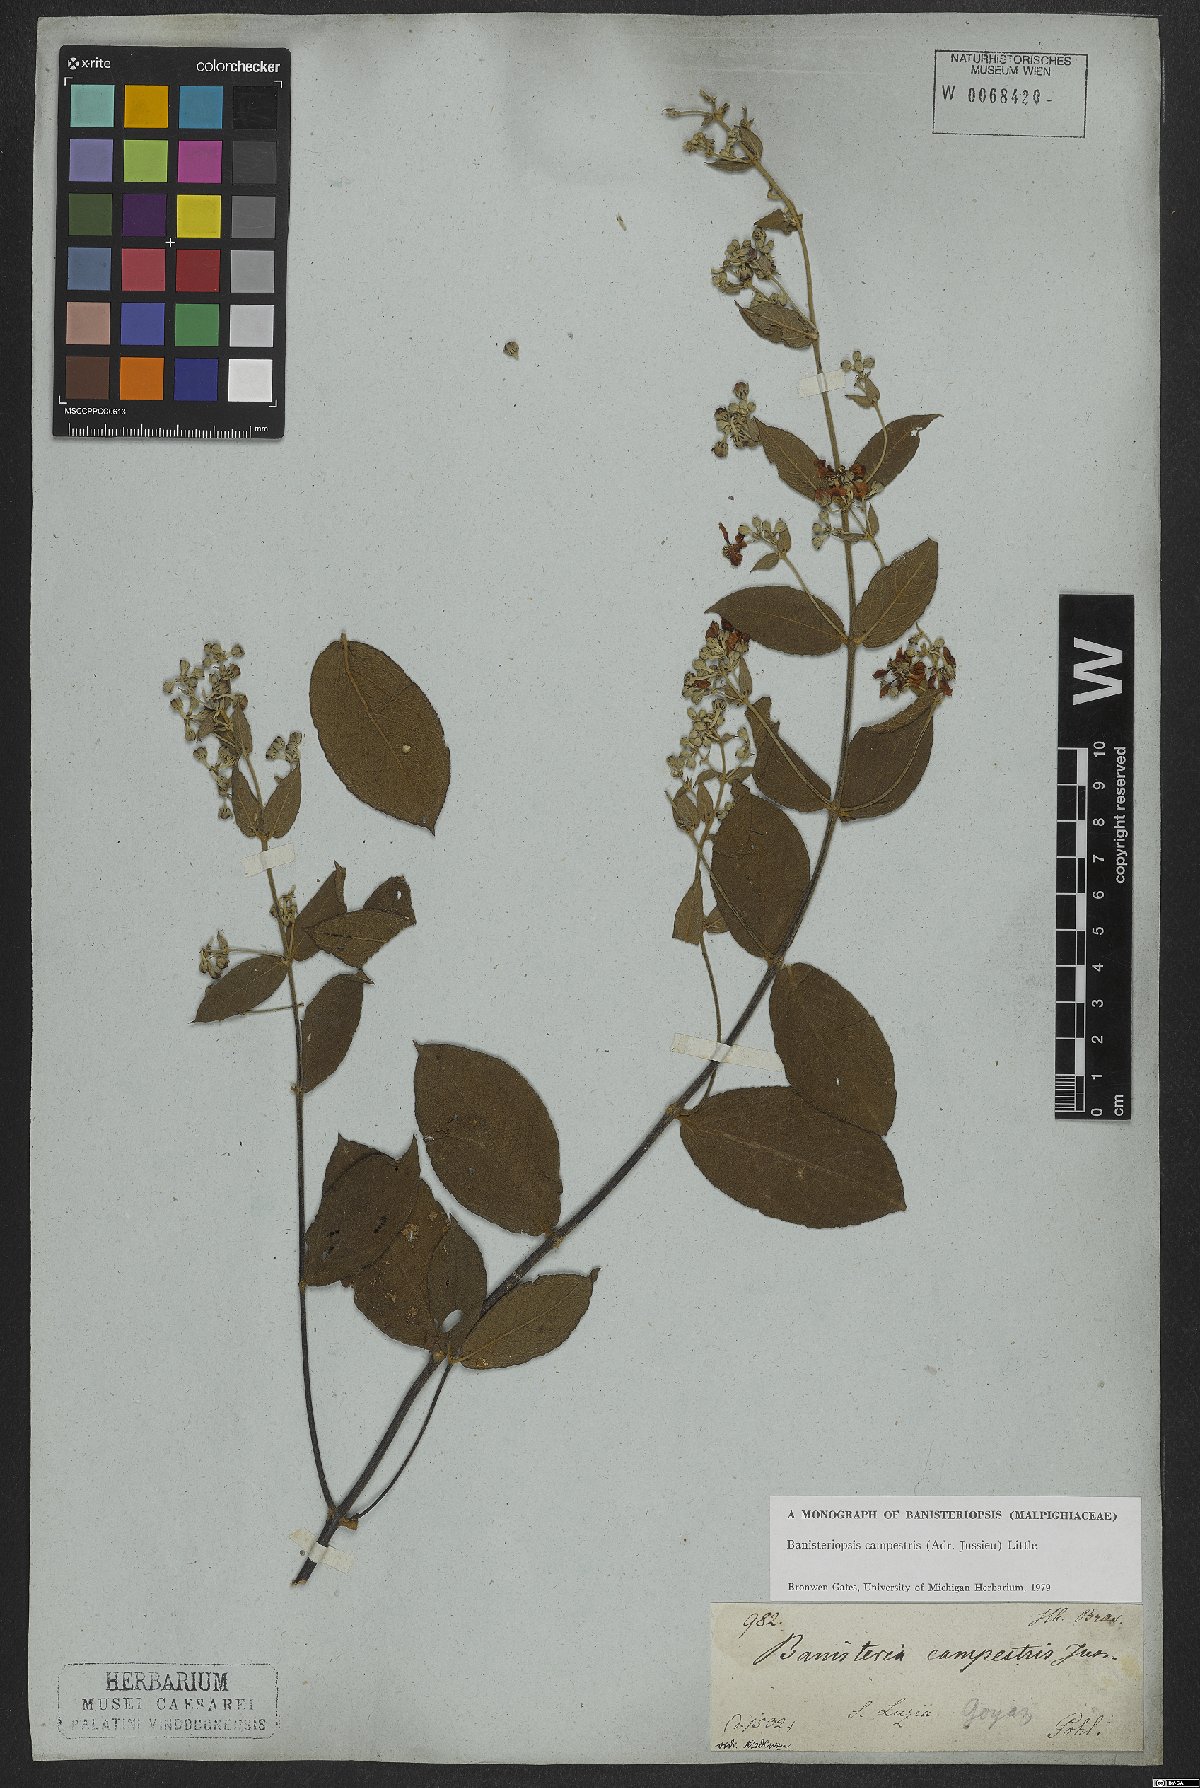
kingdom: Plantae
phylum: Tracheophyta
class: Magnoliopsida
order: Malpighiales
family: Malpighiaceae
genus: Banisteriopsis
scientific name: Banisteriopsis campestris
